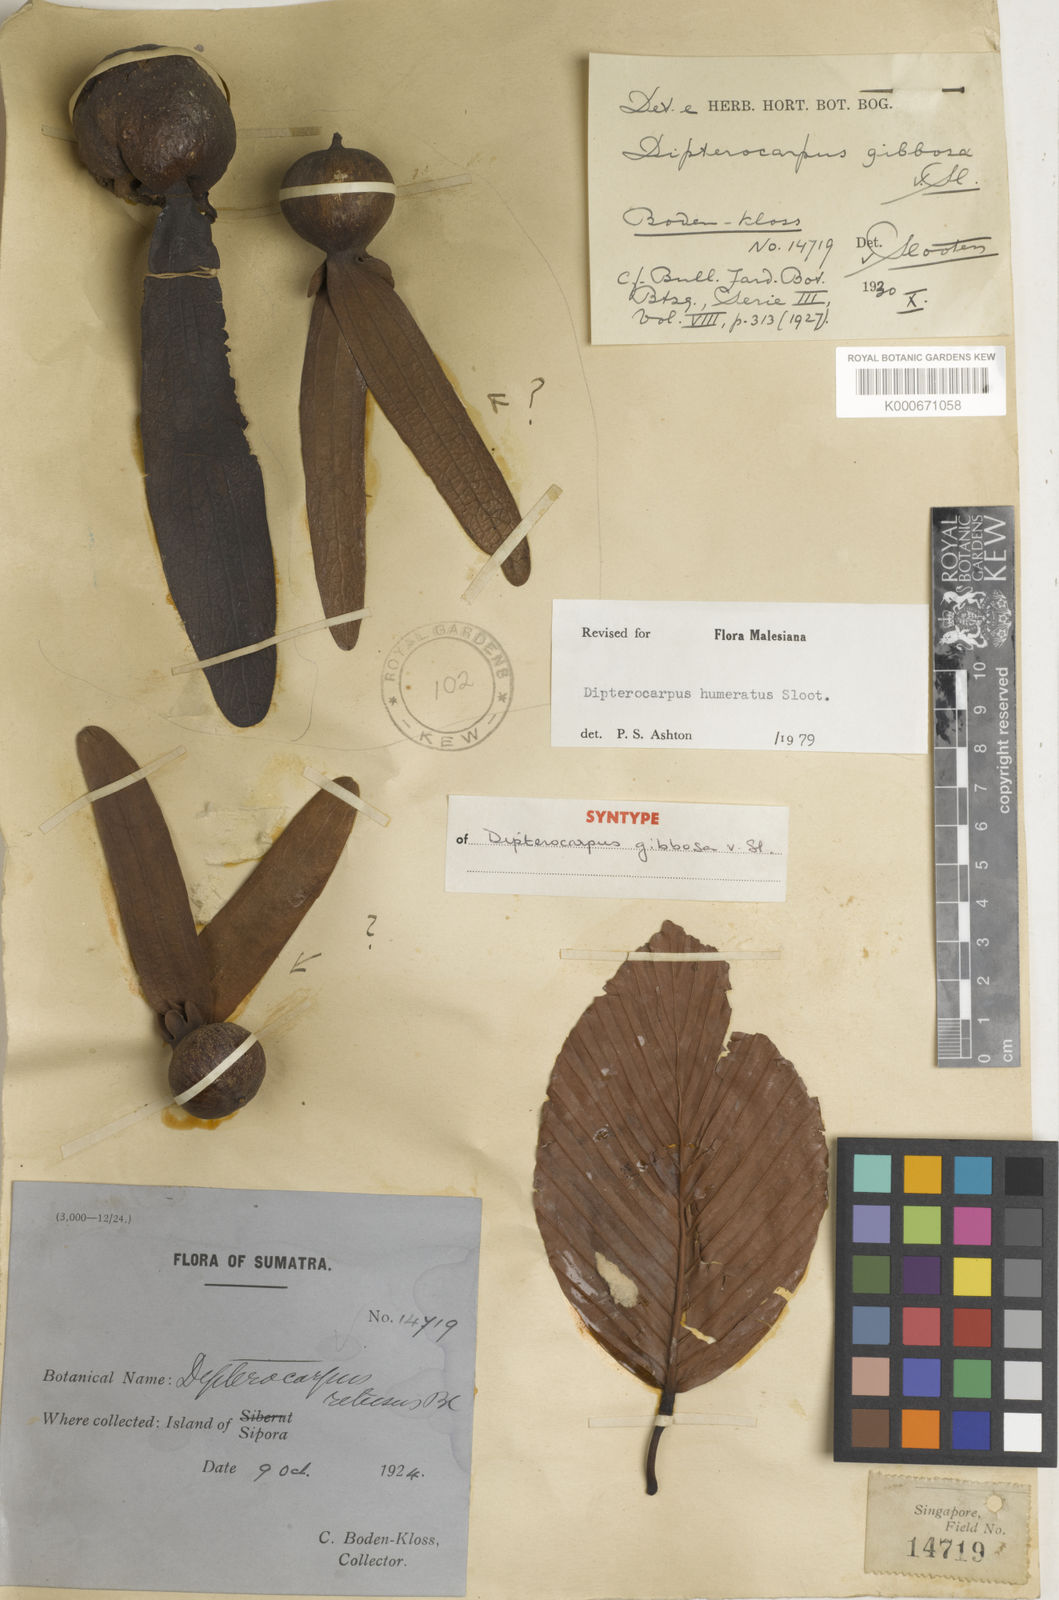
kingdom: Plantae
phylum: Tracheophyta
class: Magnoliopsida
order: Malvales
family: Dipterocarpaceae
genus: Dipterocarpus
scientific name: Dipterocarpus humeratus
